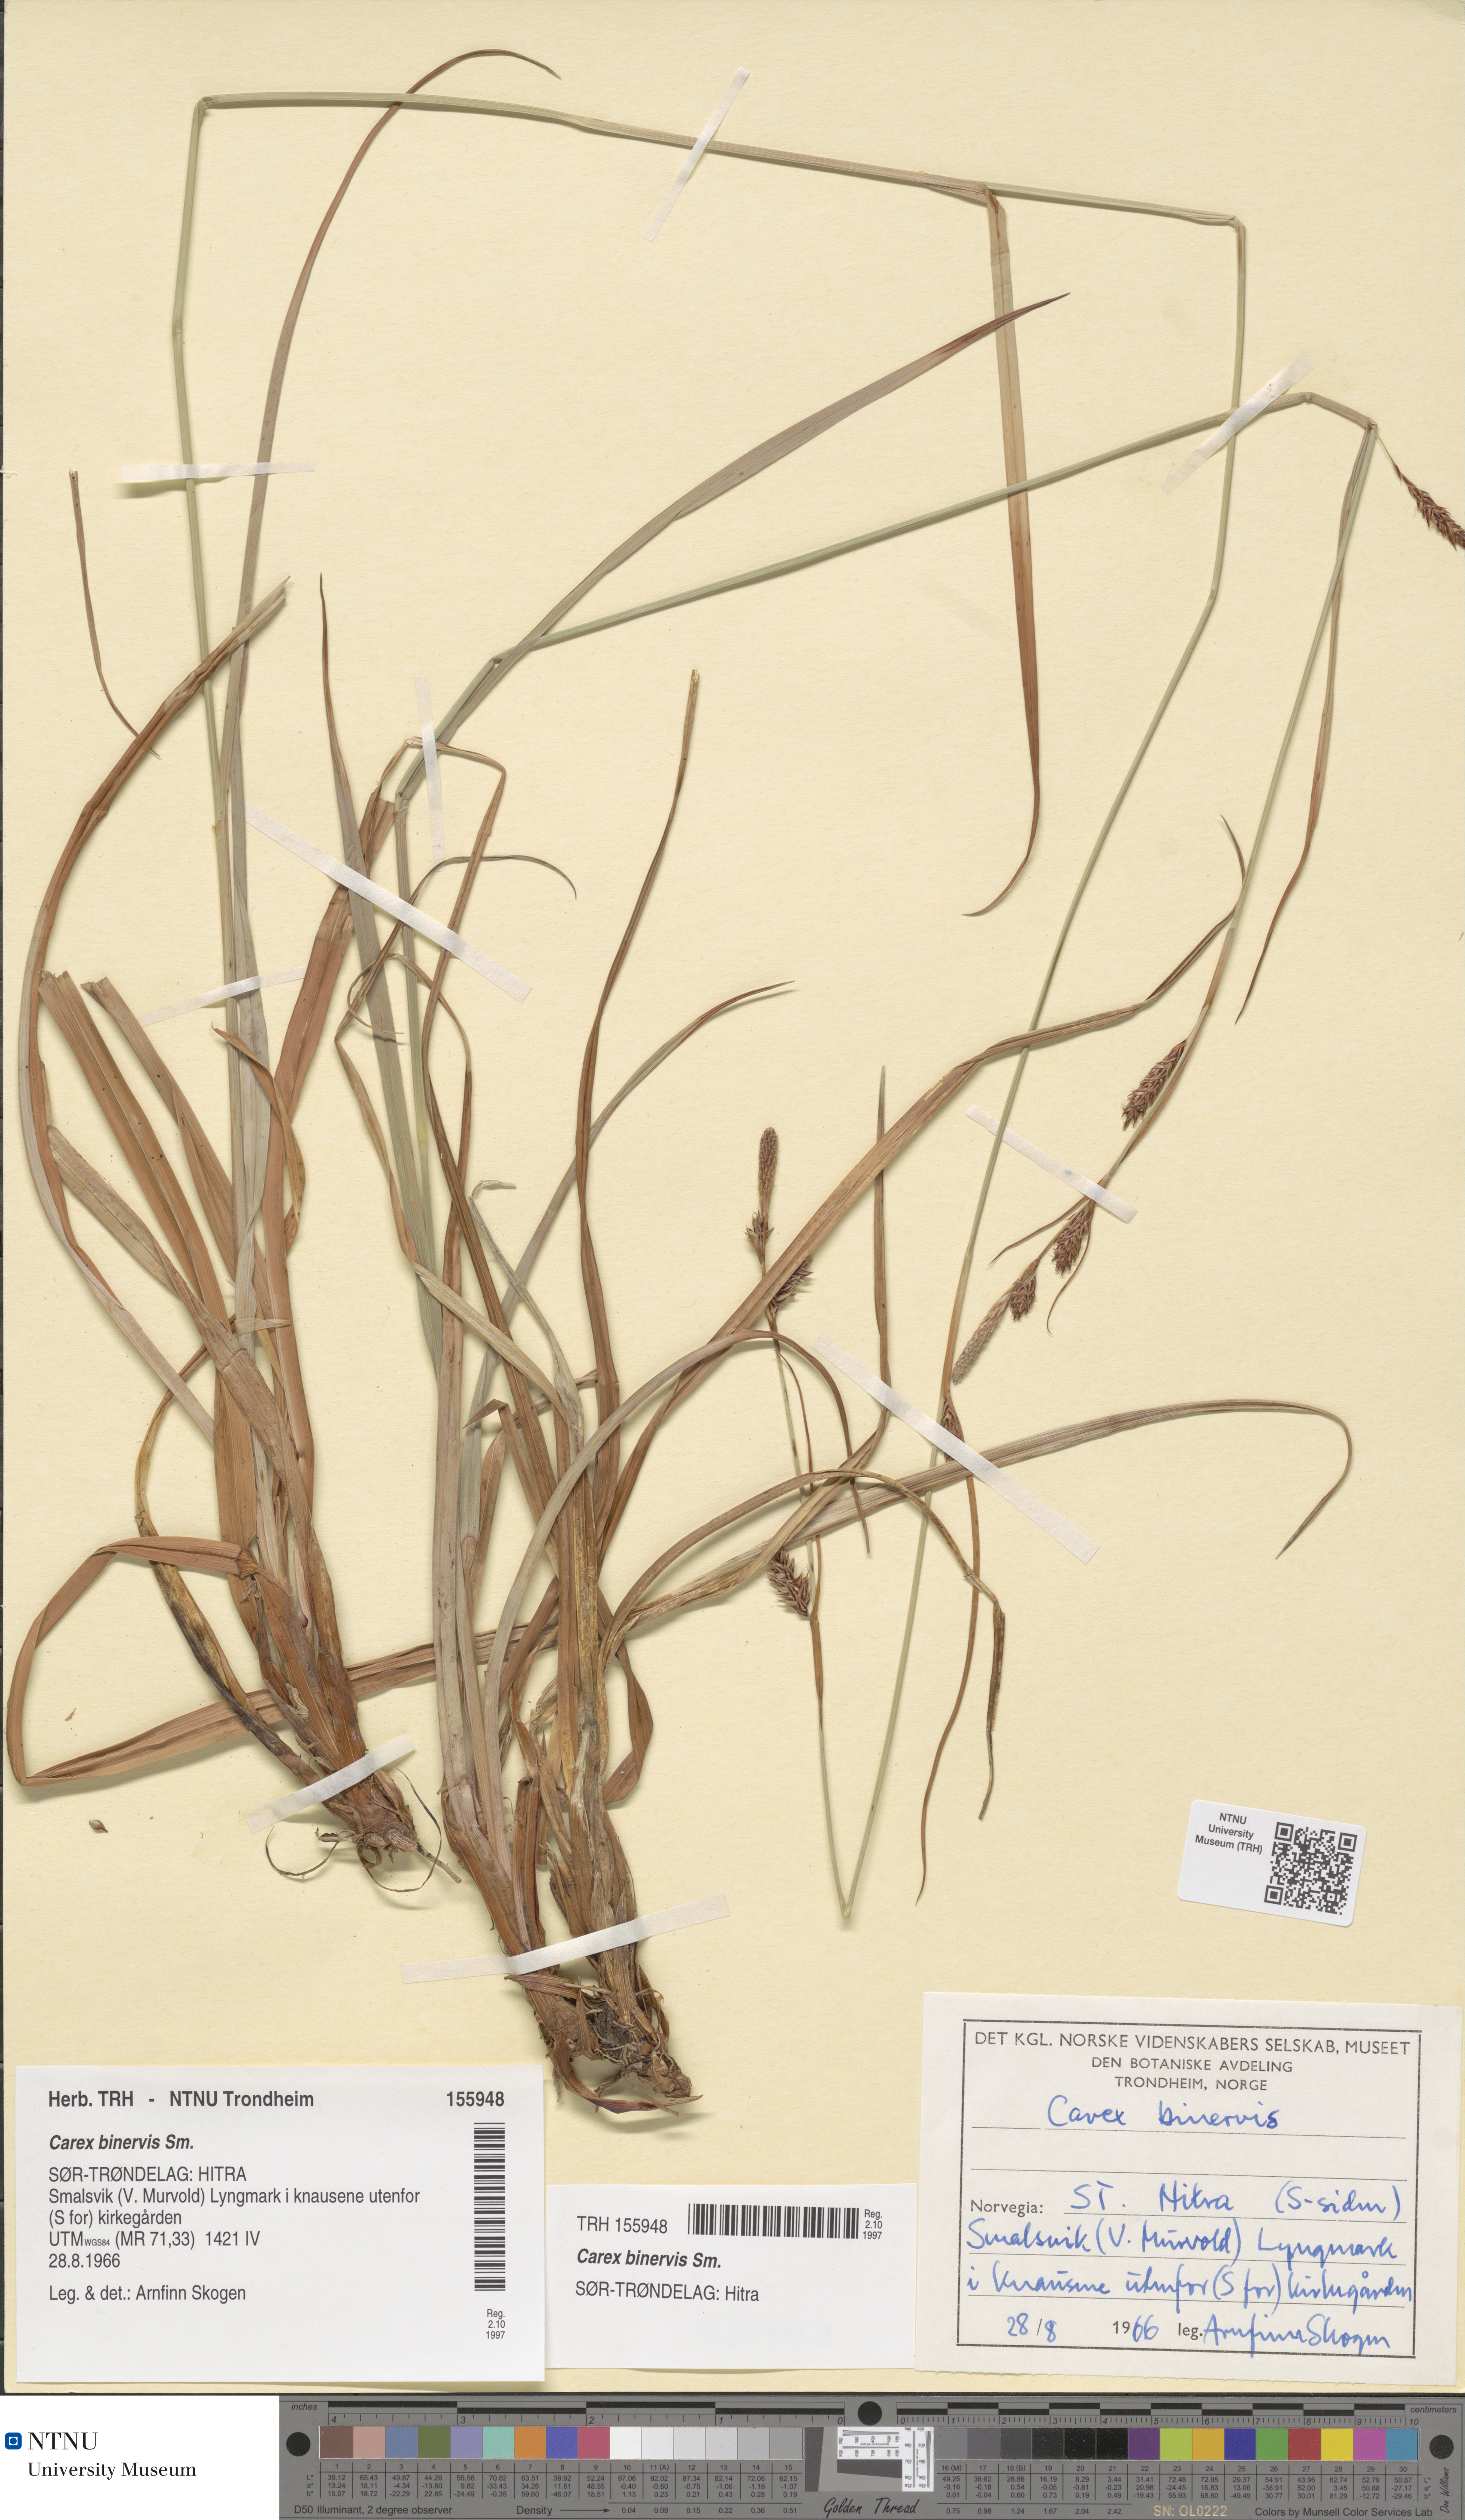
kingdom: Plantae
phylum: Tracheophyta
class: Liliopsida
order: Poales
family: Cyperaceae
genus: Carex
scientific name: Carex binervis
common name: Green-ribbed sedge
